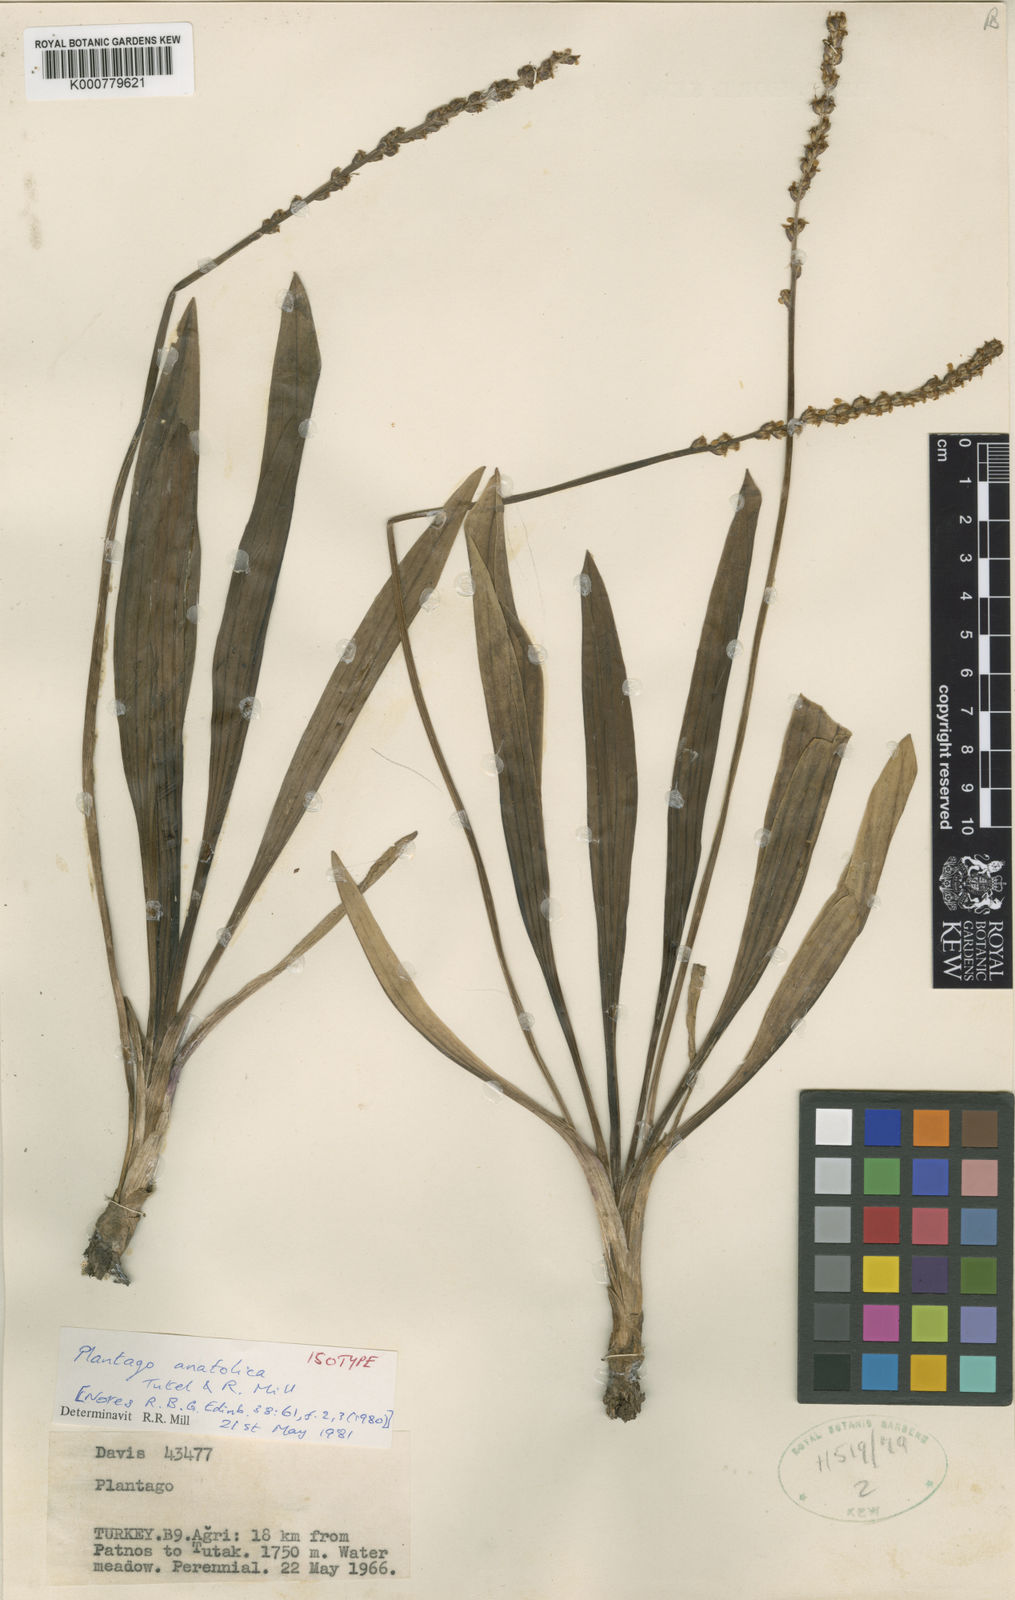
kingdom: Plantae
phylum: Tracheophyta
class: Magnoliopsida
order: Lamiales
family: Plantaginaceae
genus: Plantago
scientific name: Plantago anatolica
